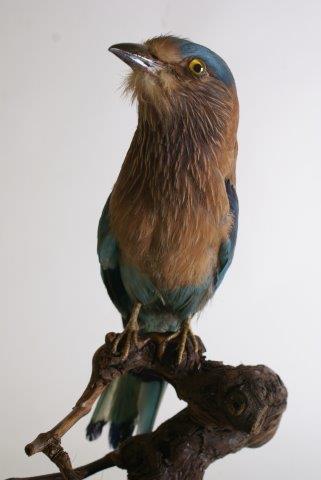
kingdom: Animalia
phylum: Chordata
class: Aves
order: Coraciiformes
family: Coraciidae
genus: Coracias
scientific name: Coracias benghalensis
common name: Indische scharrelaar
